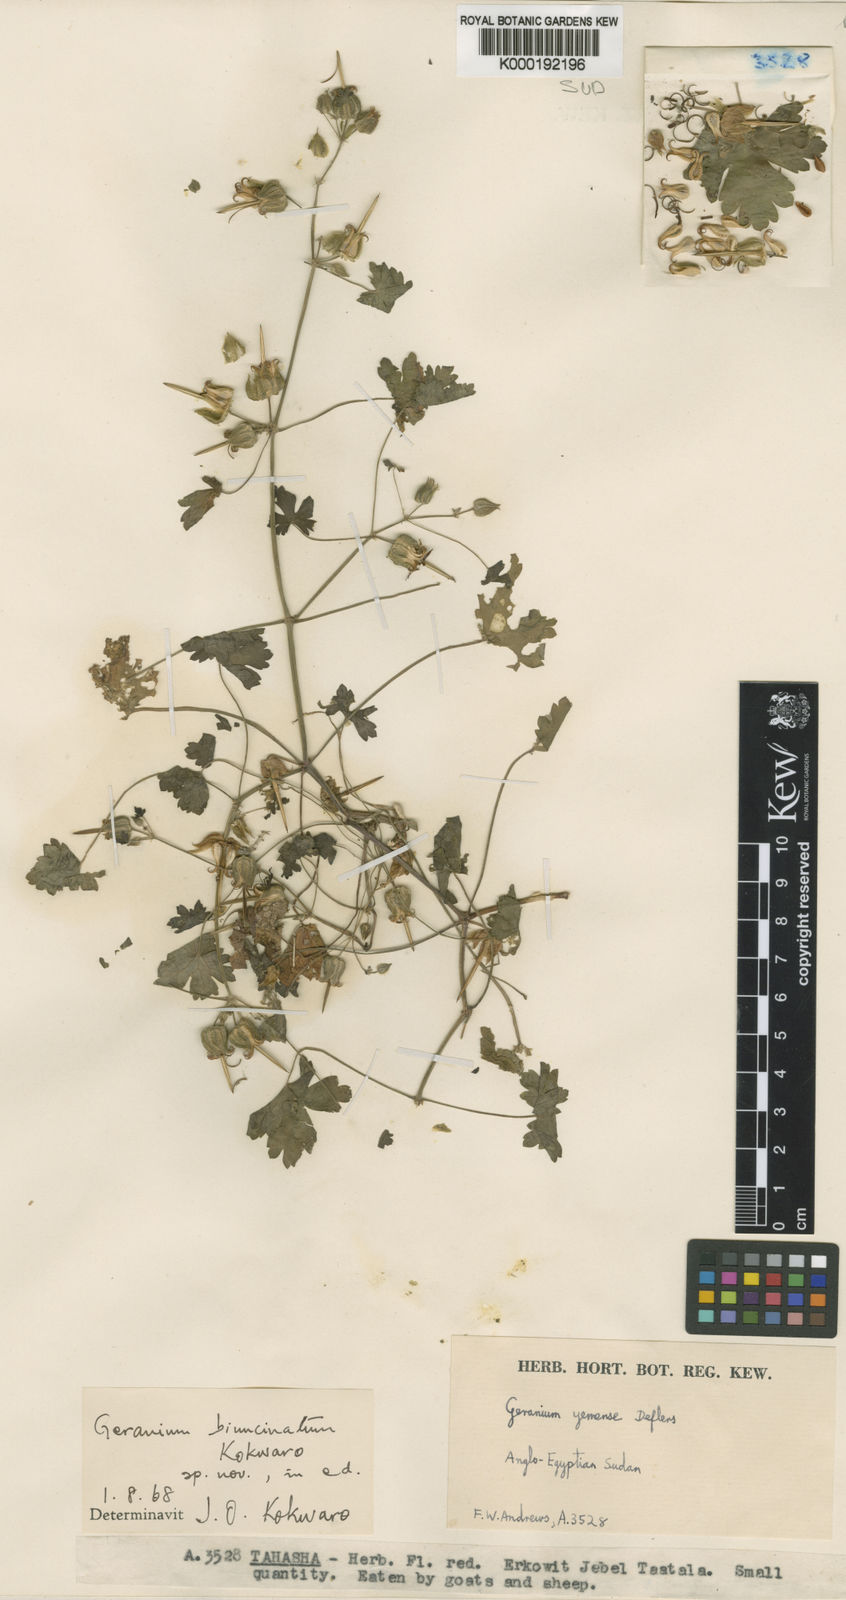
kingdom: Plantae
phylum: Tracheophyta
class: Magnoliopsida
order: Geraniales
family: Geraniaceae
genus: Geranium
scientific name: Geranium biuncinatum
